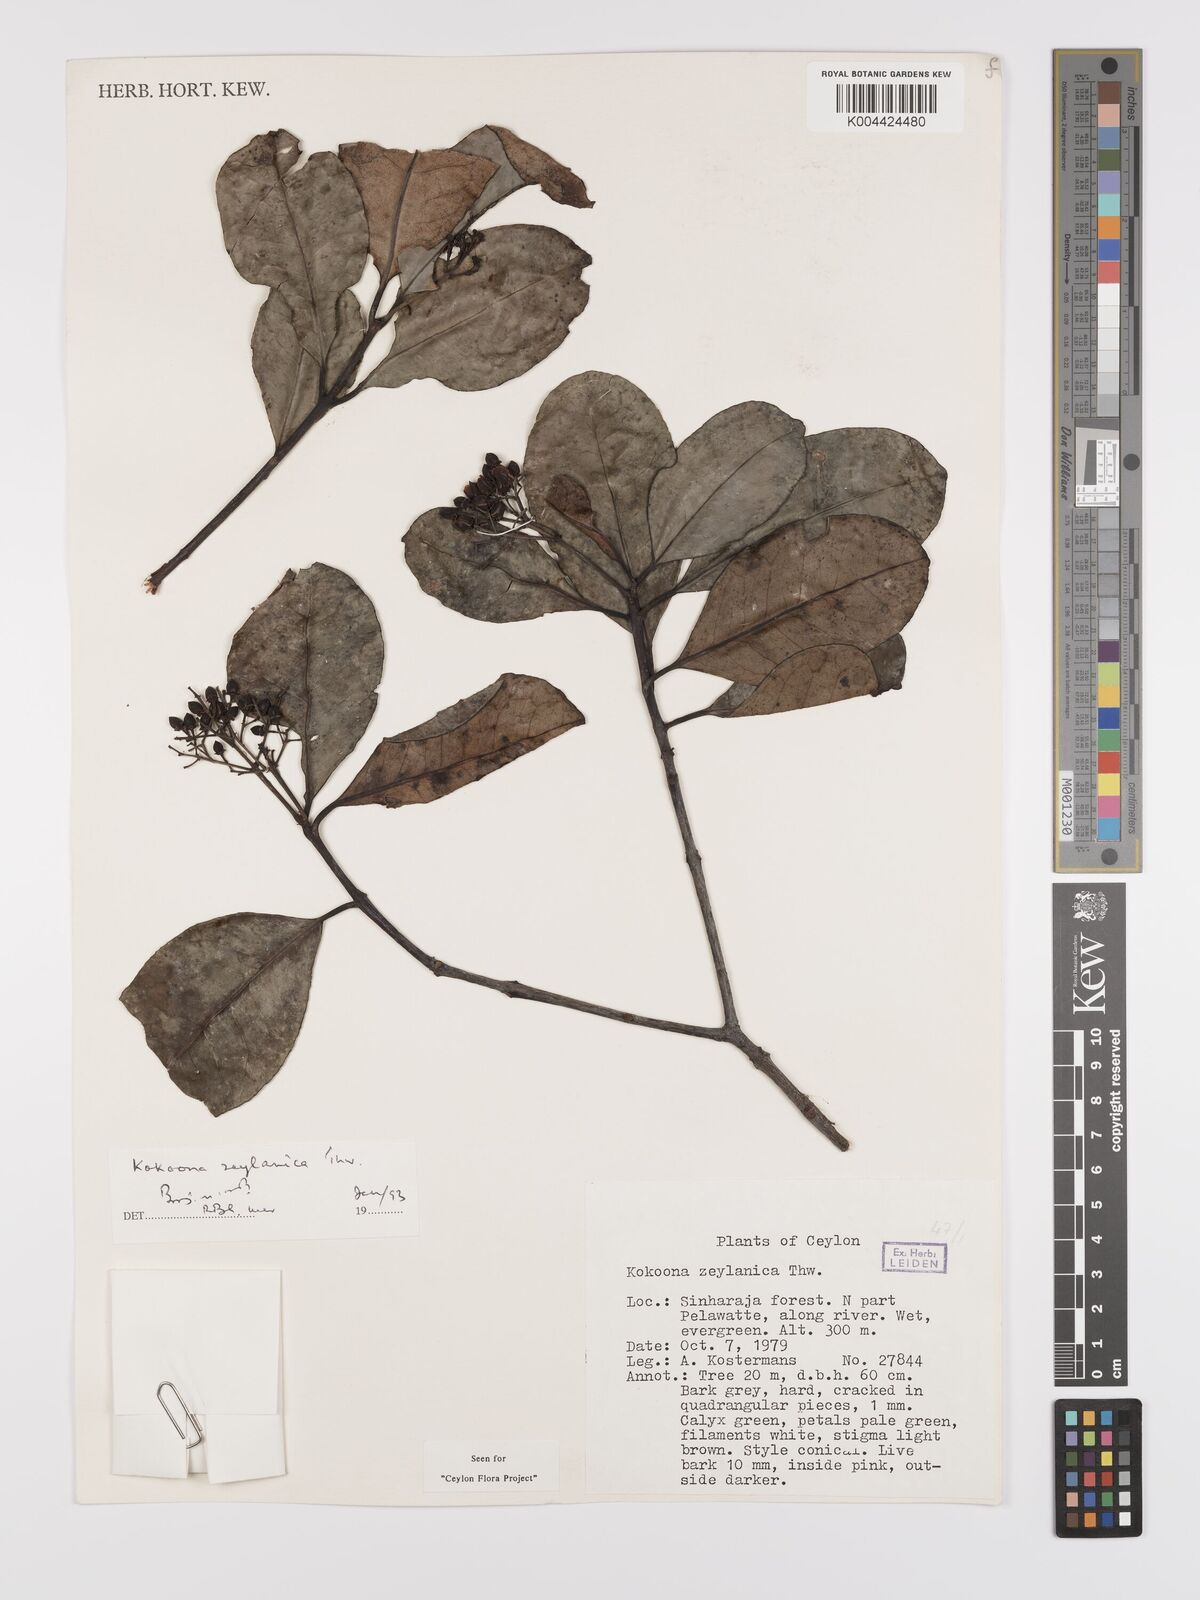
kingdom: Plantae
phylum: Tracheophyta
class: Magnoliopsida
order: Celastrales
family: Celastraceae
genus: Kokoona
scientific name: Kokoona zeylanica
